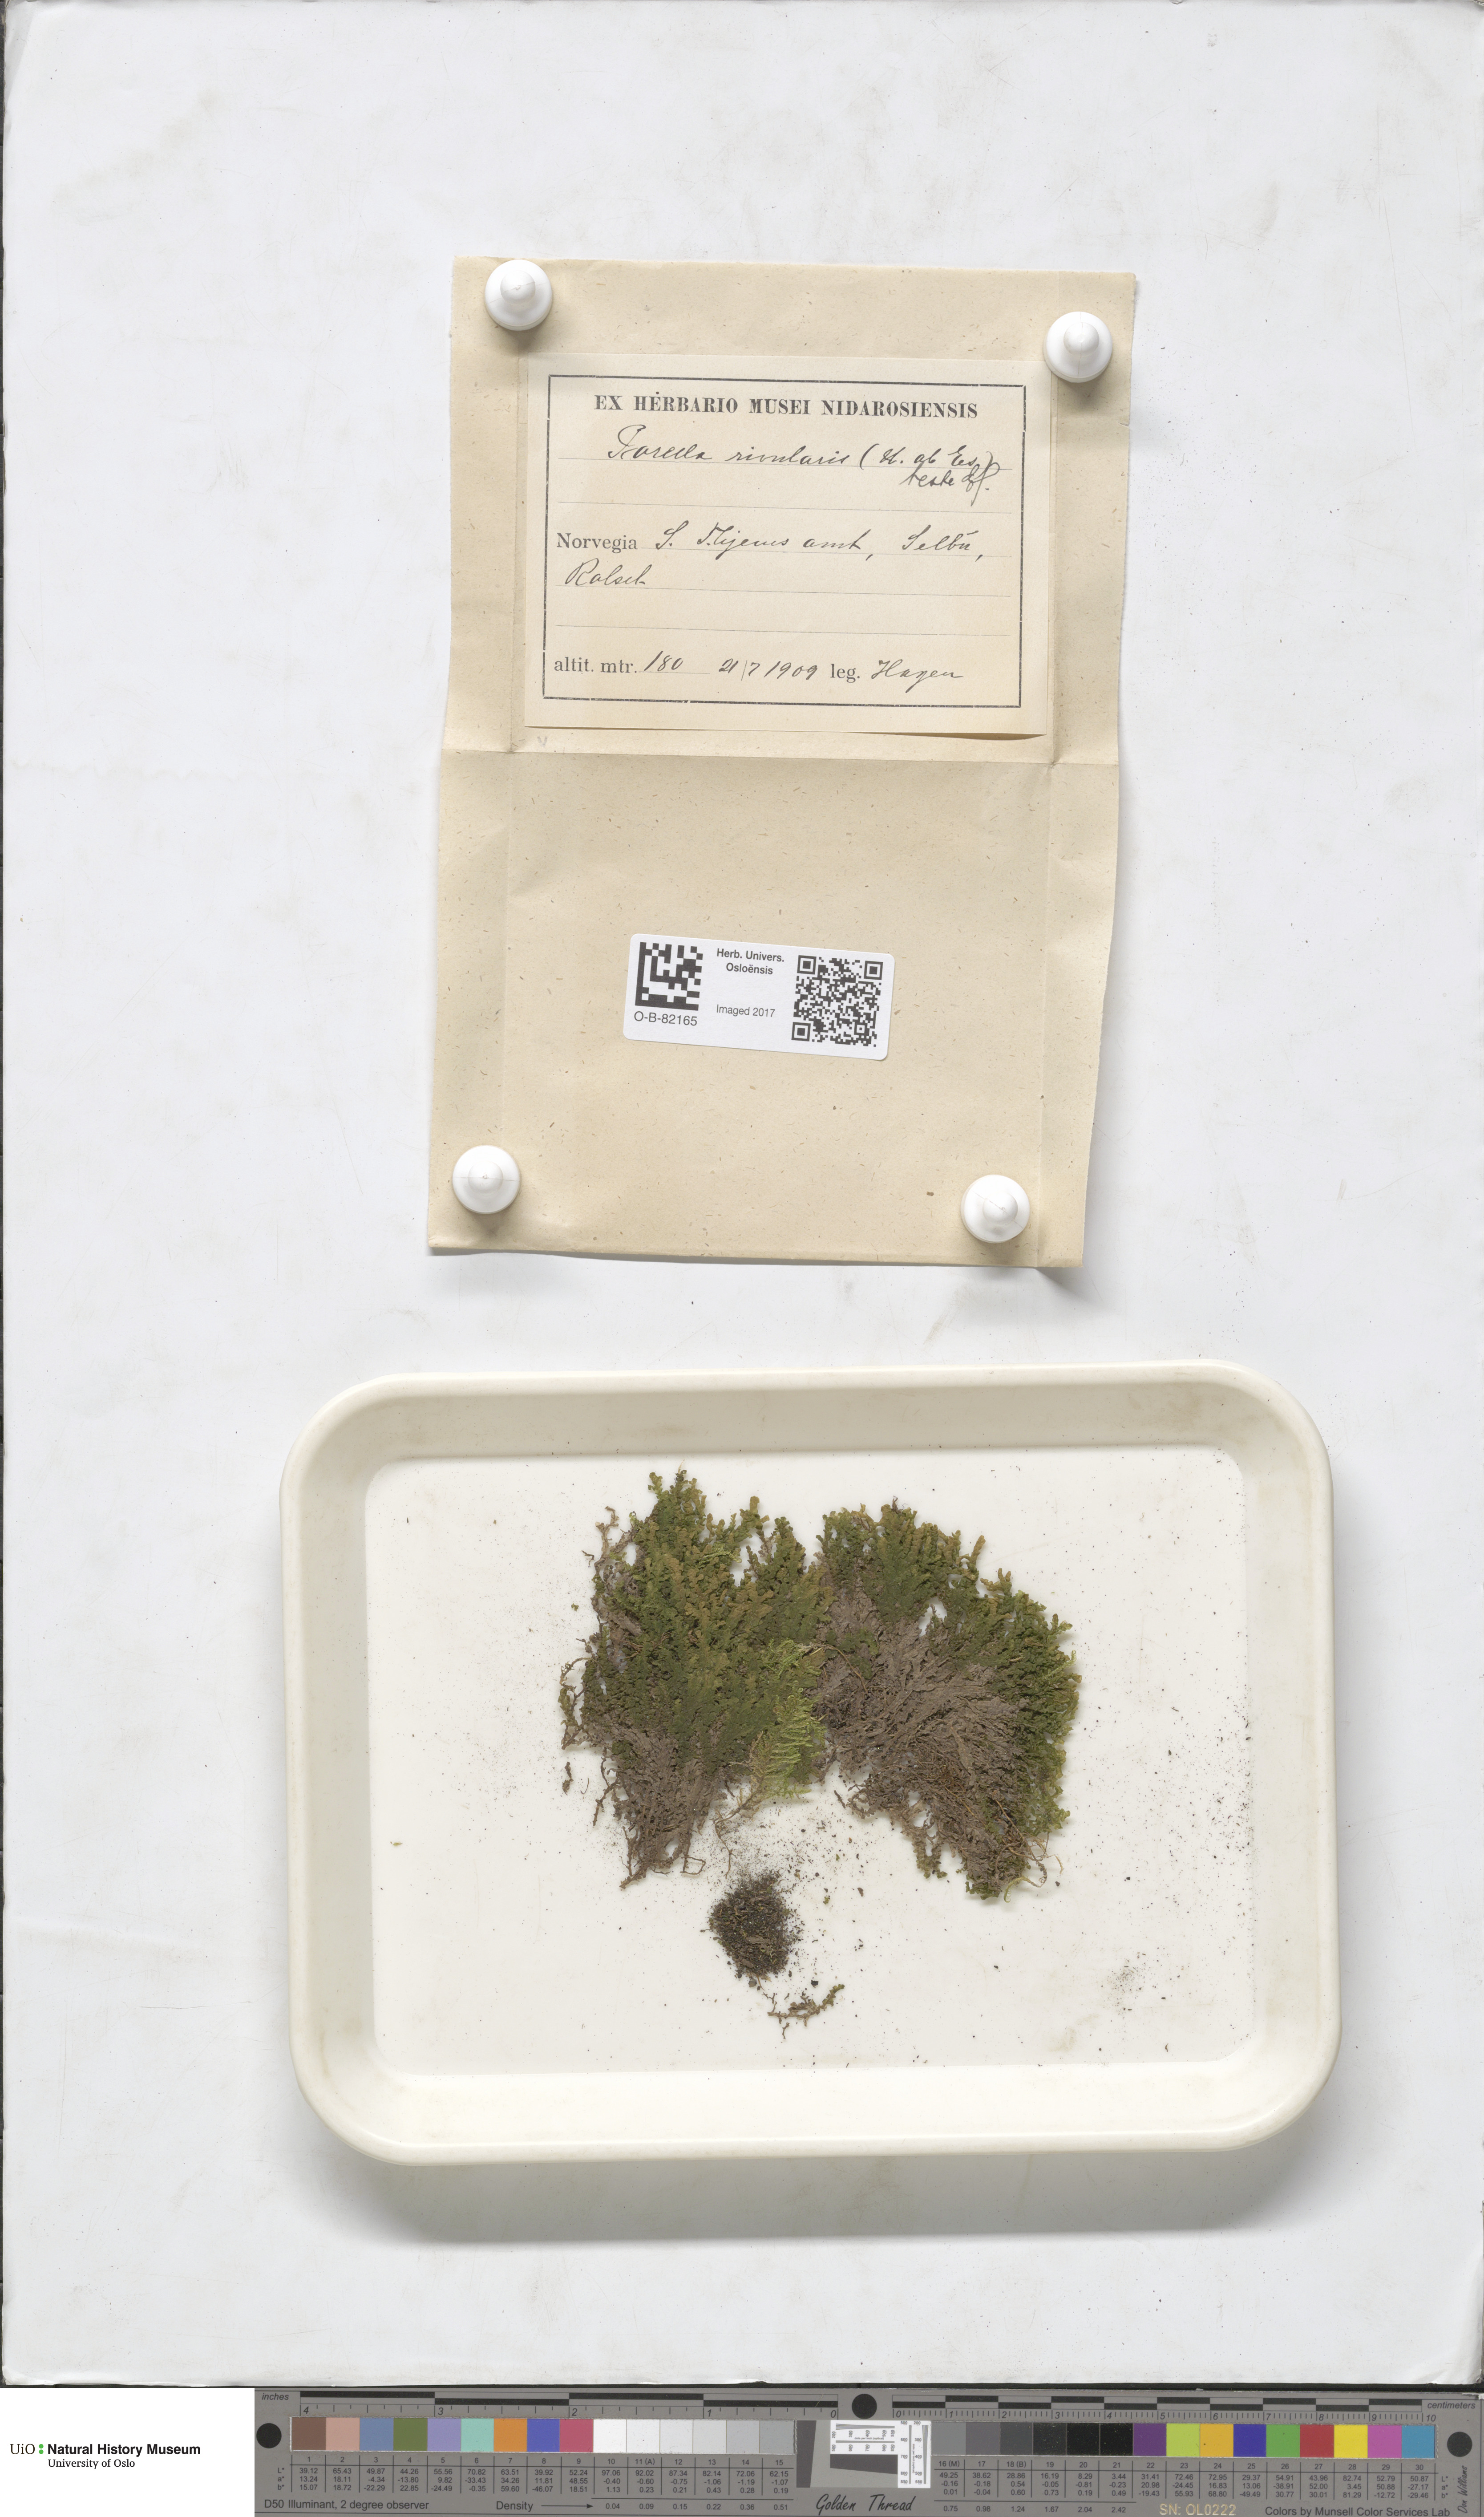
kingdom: Plantae
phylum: Marchantiophyta
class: Jungermanniopsida
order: Porellales
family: Porellaceae
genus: Porella
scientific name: Porella cordaeana
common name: Cliff scalewort
